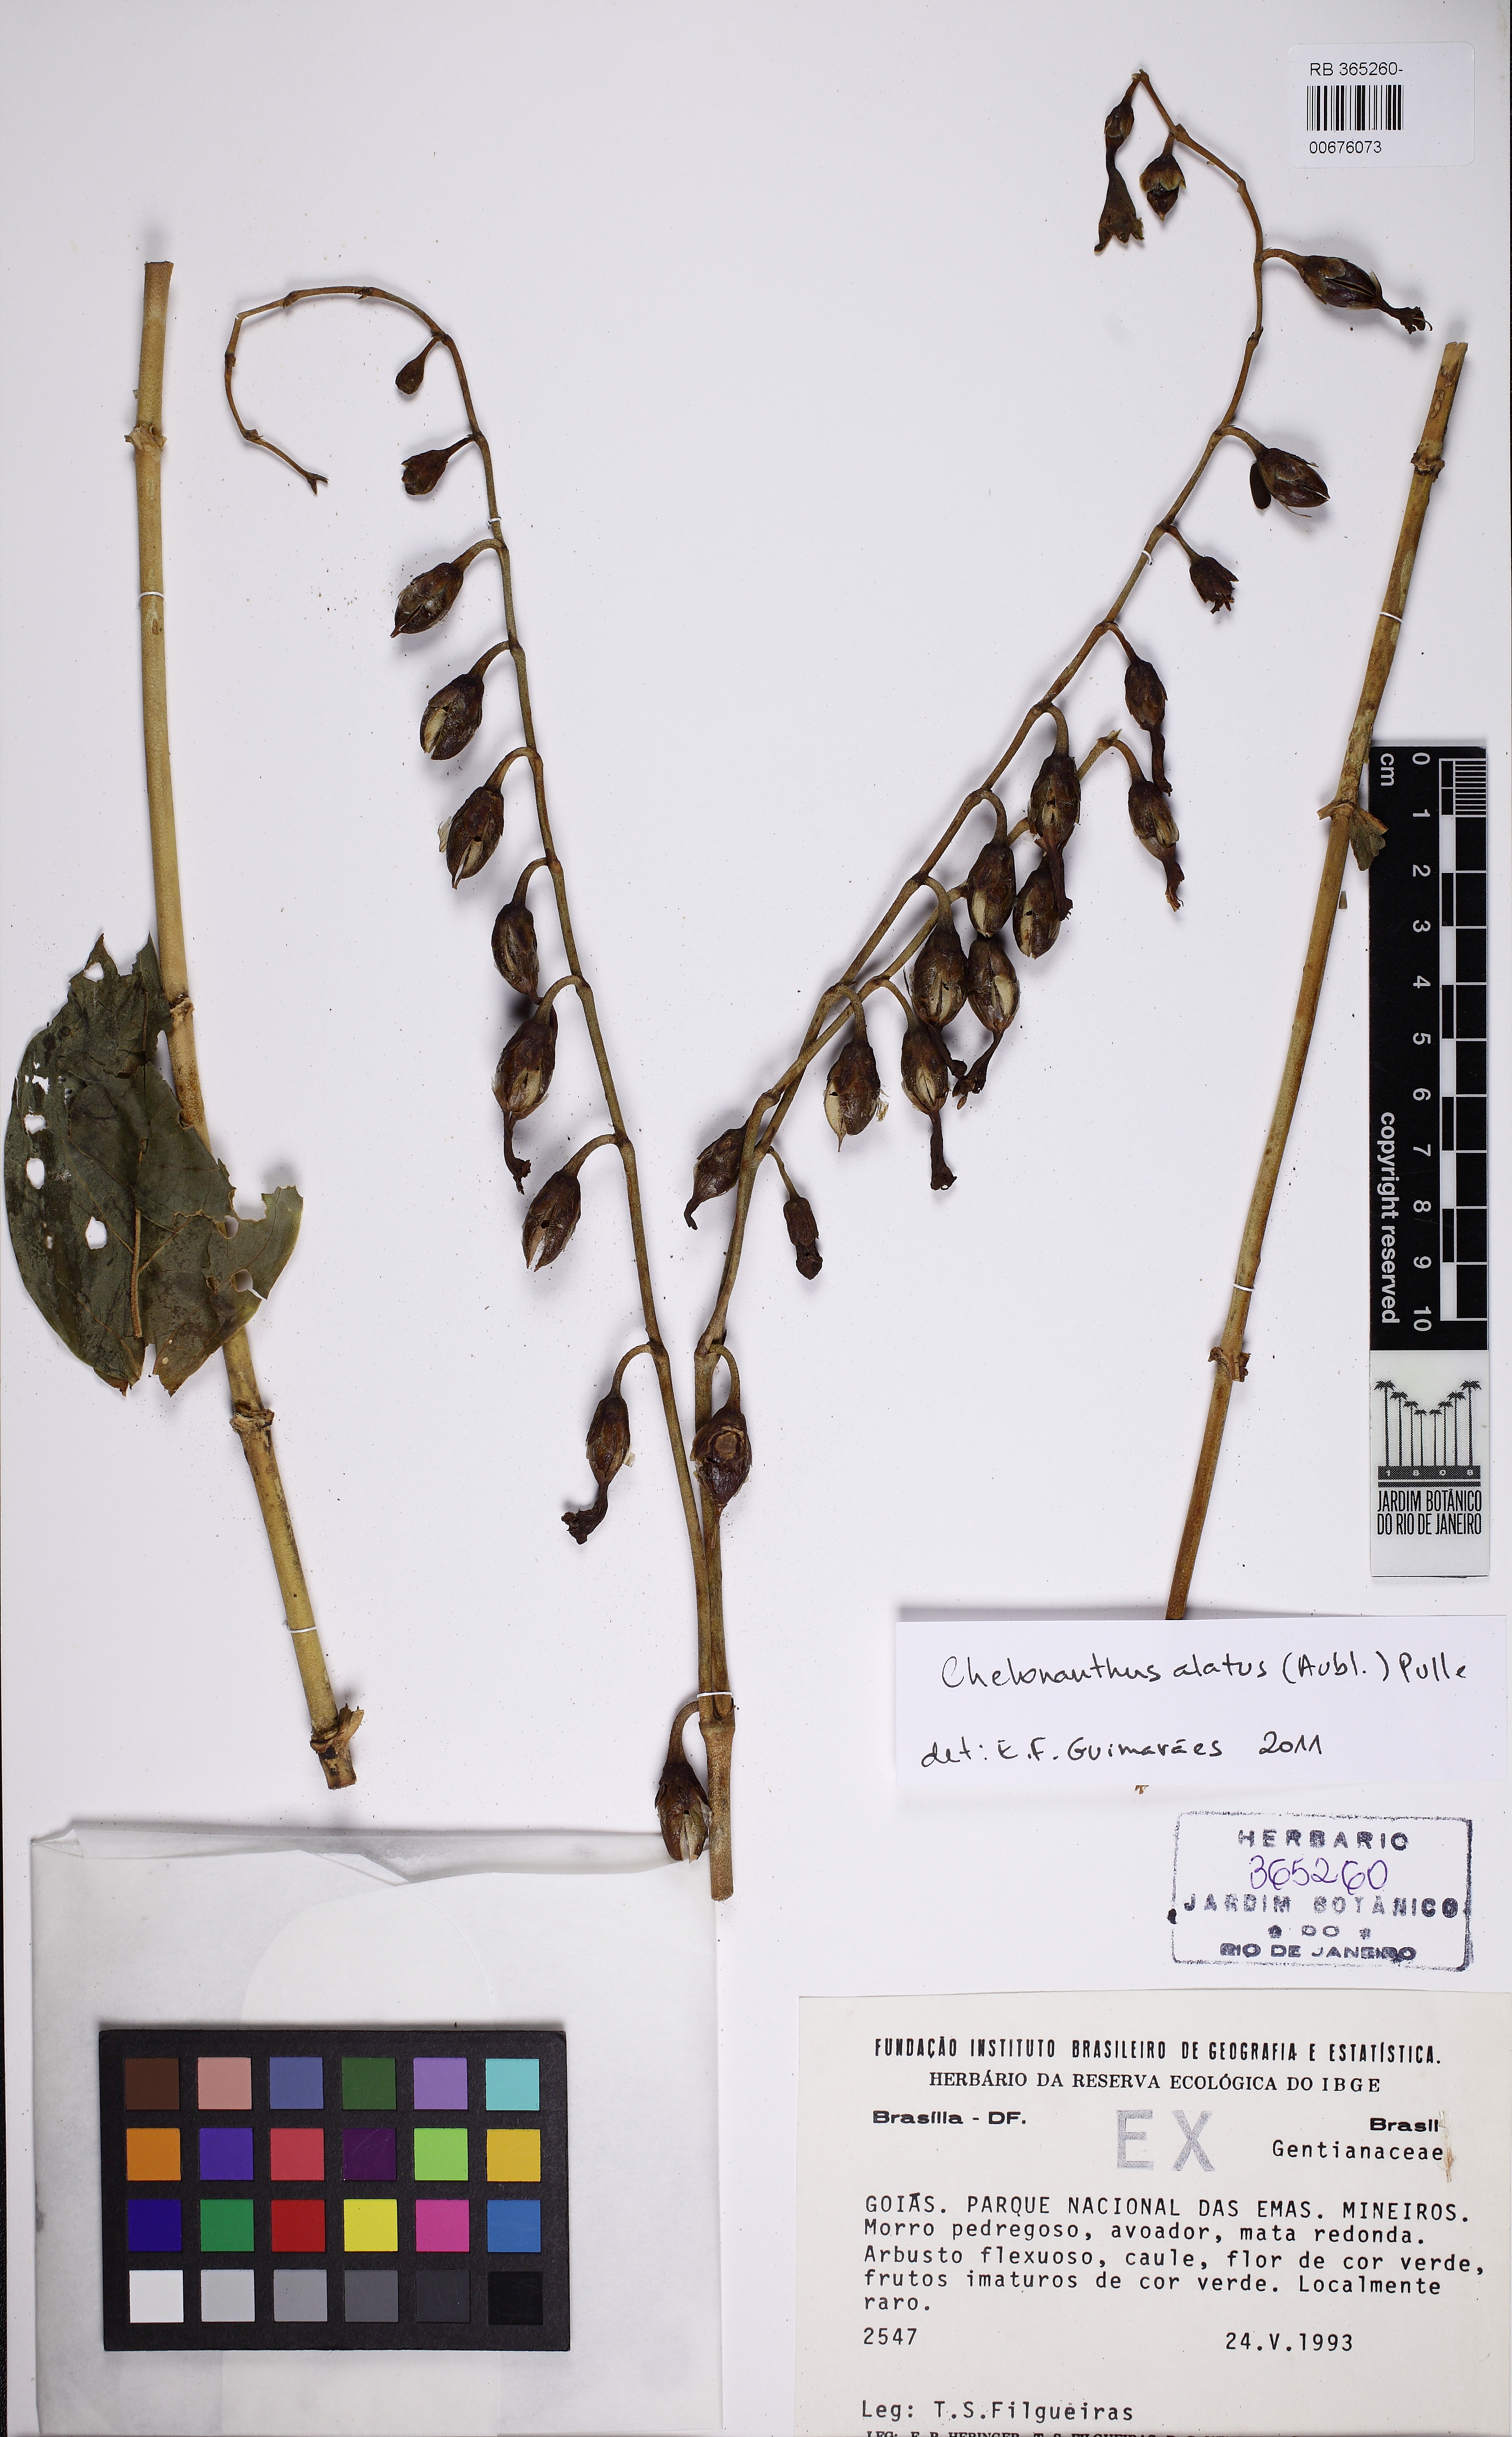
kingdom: Plantae
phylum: Tracheophyta
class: Magnoliopsida
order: Gentianales
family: Gentianaceae
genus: Chelonanthus
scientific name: Chelonanthus alatus
